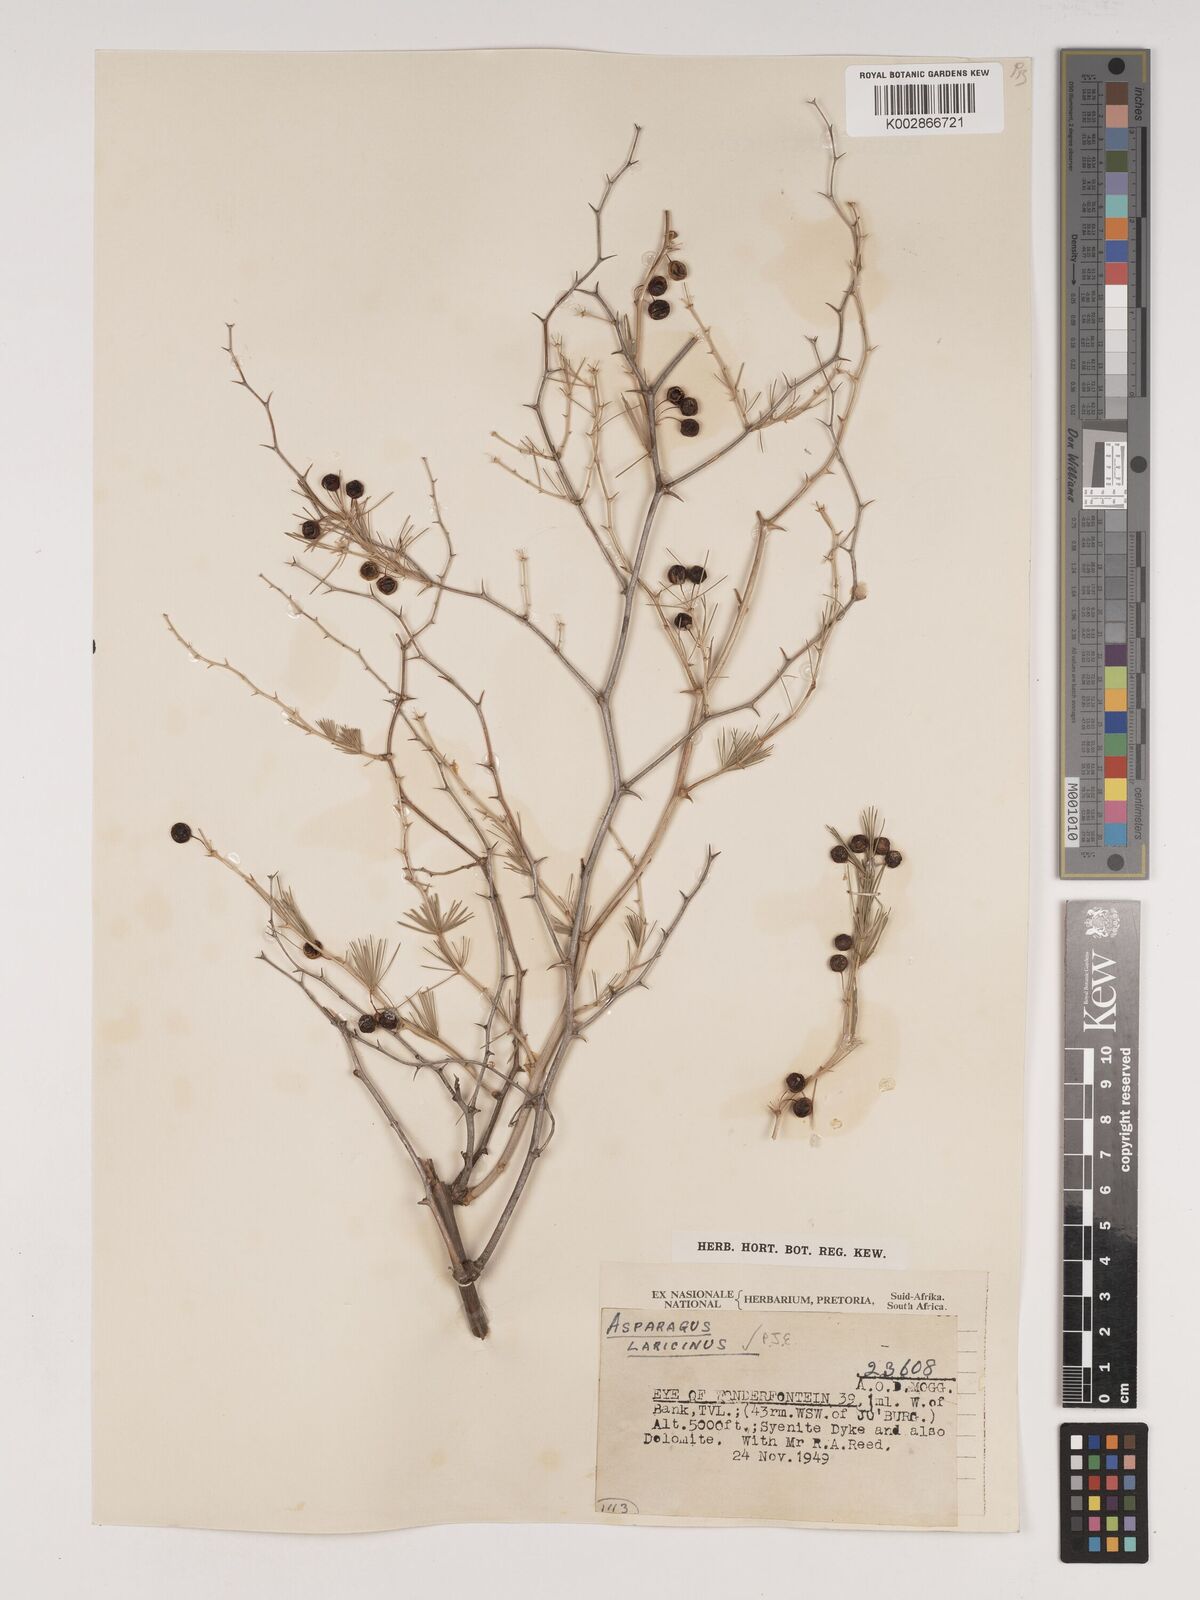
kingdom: Plantae
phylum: Tracheophyta
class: Liliopsida
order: Asparagales
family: Asparagaceae
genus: Asparagus
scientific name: Asparagus laricinus
